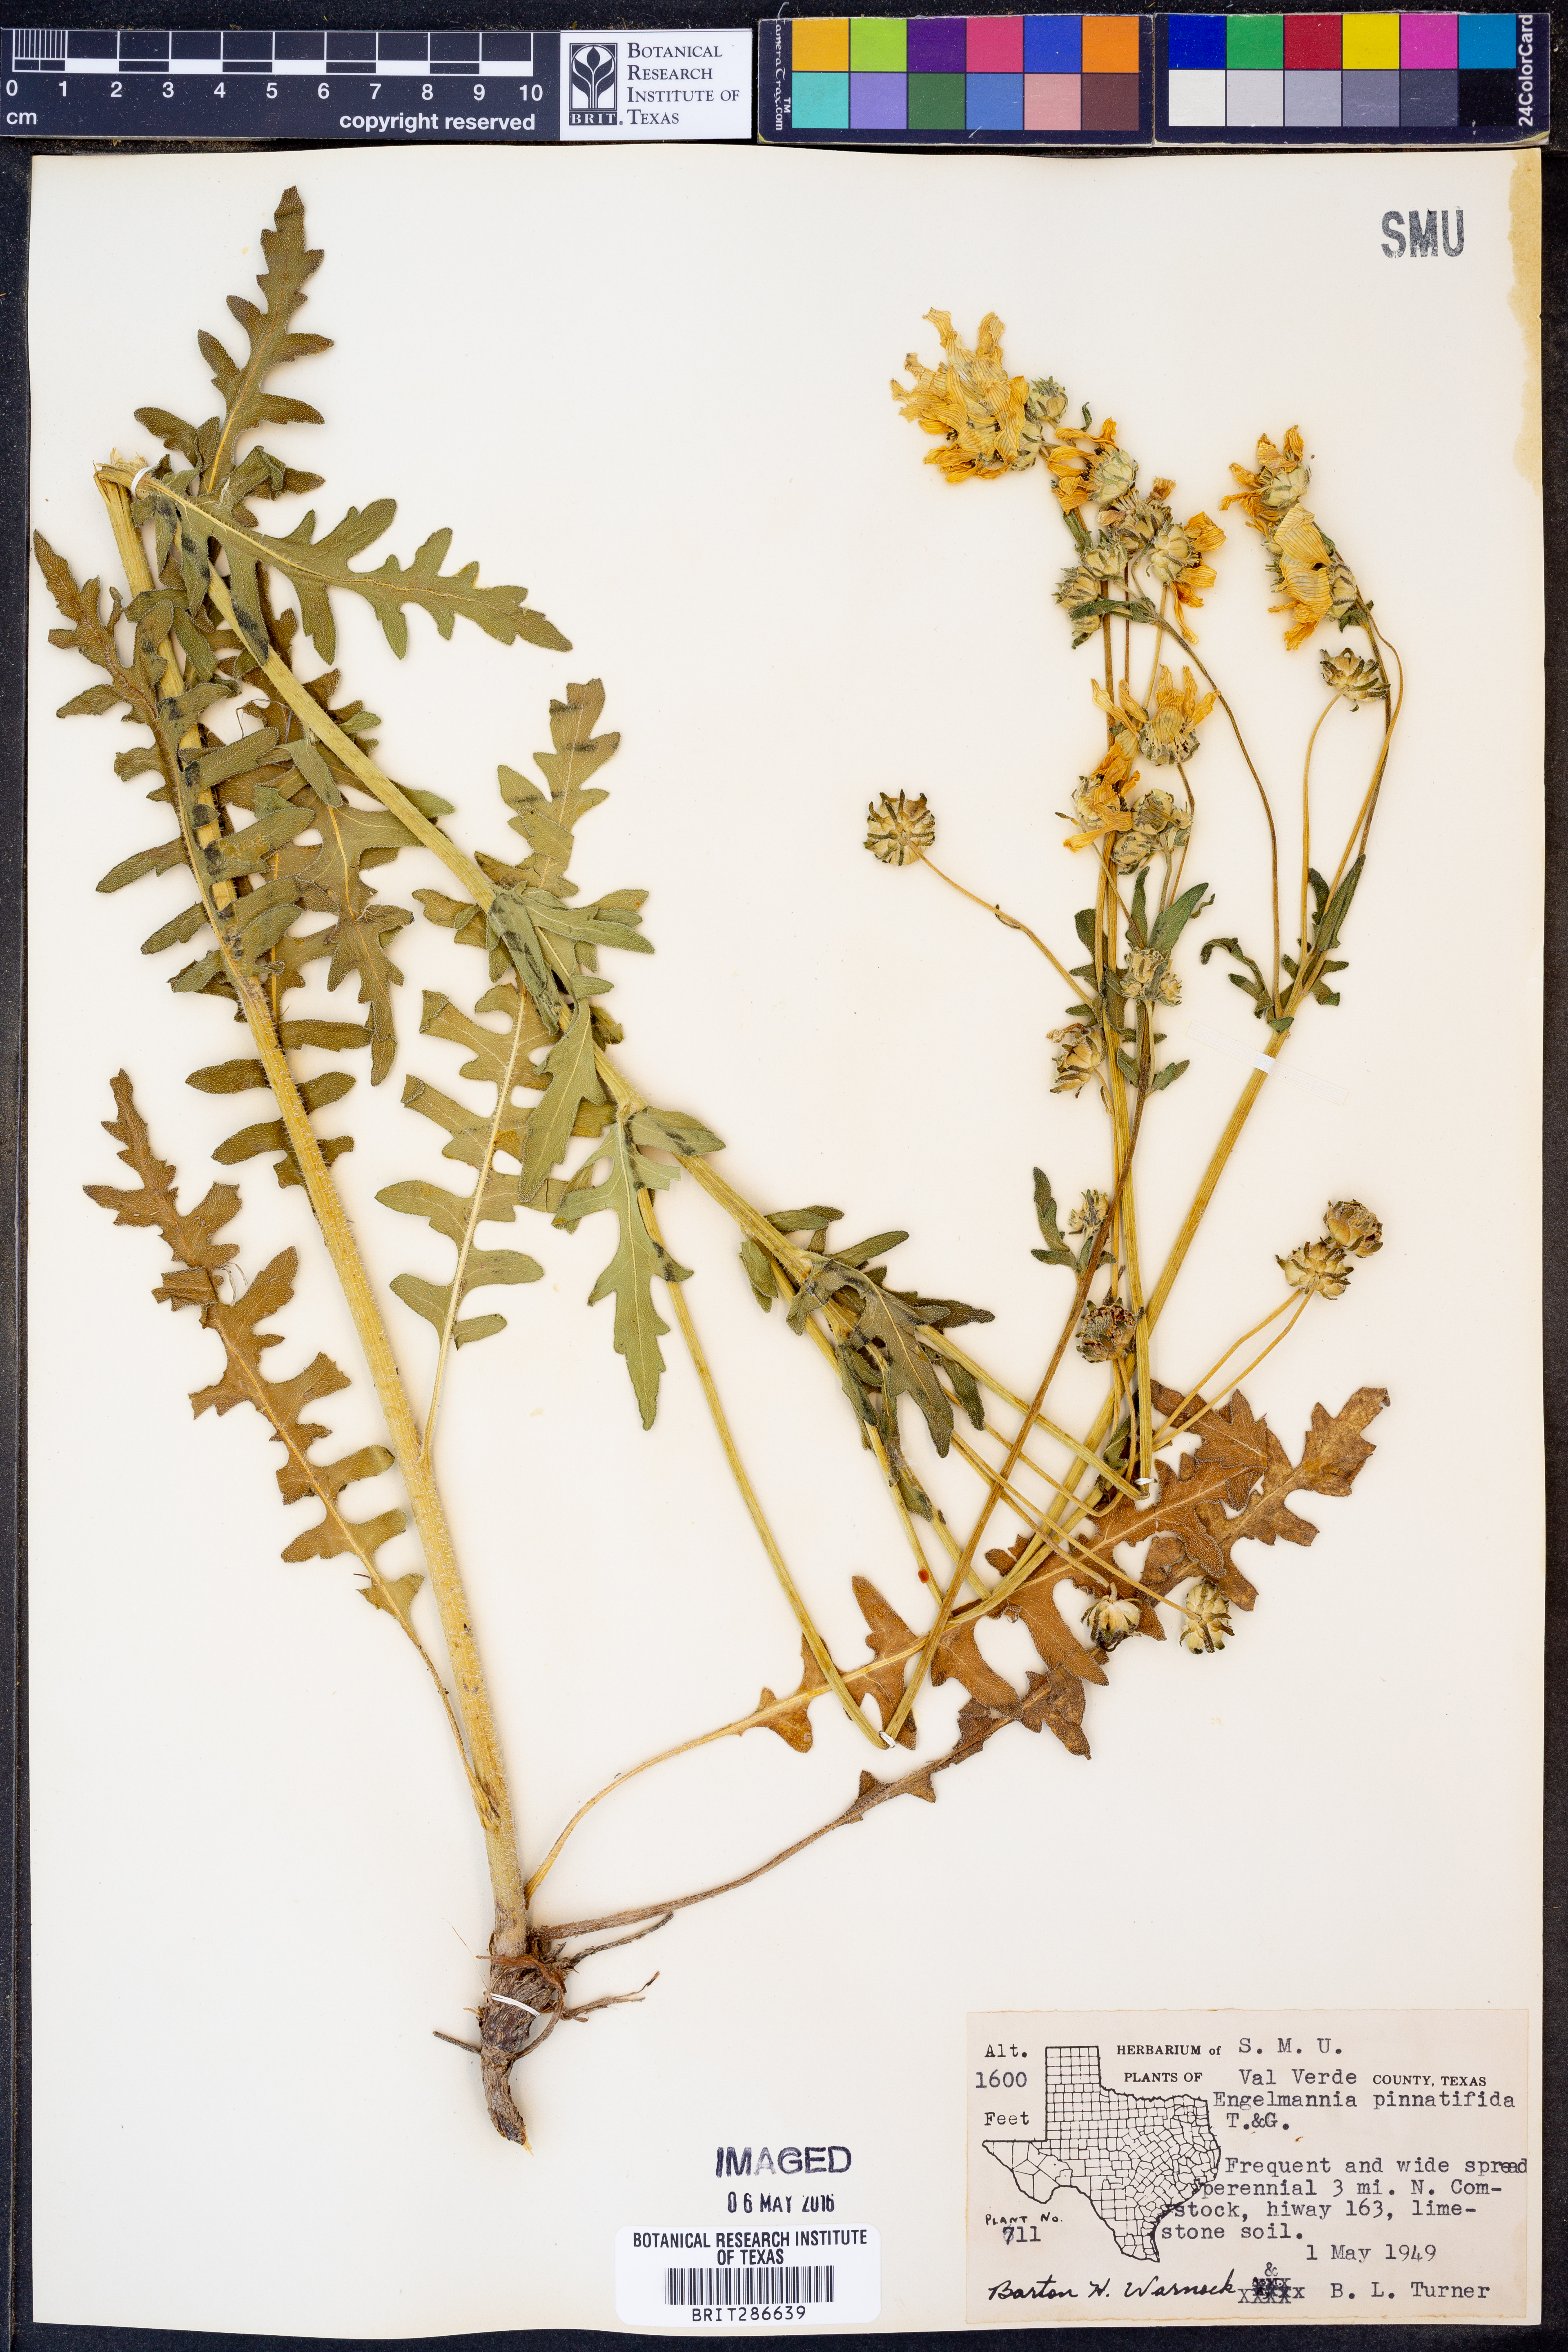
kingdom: Plantae
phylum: Tracheophyta
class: Magnoliopsida
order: Asterales
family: Asteraceae
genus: Engelmannia
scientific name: Engelmannia peristenia
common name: Engelmann's daisy
